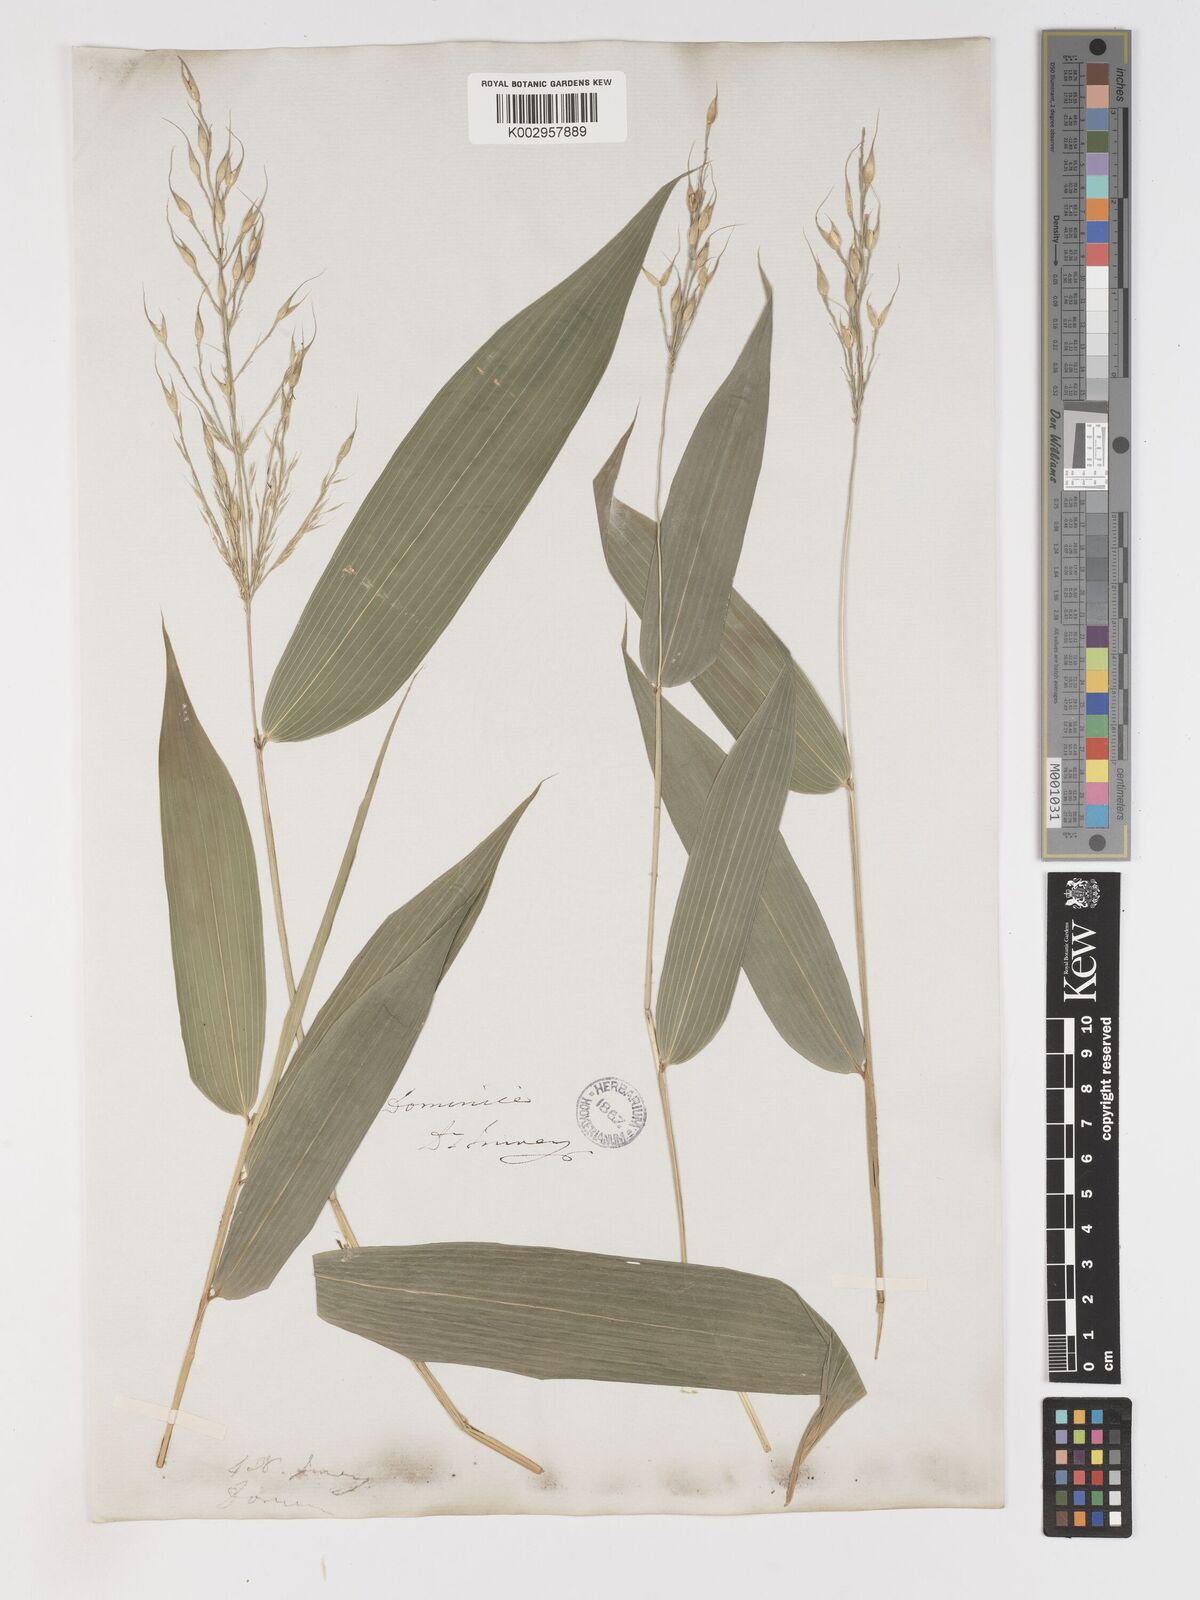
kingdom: Plantae
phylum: Tracheophyta
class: Liliopsida
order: Poales
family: Poaceae
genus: Olyra
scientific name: Olyra latifolia
